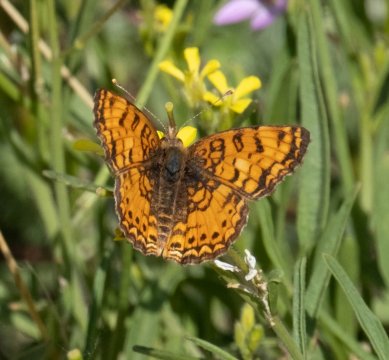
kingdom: Animalia
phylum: Arthropoda
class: Insecta
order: Lepidoptera
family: Nymphalidae
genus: Eresia
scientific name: Eresia aveyrona
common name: Mylitta Crescent
